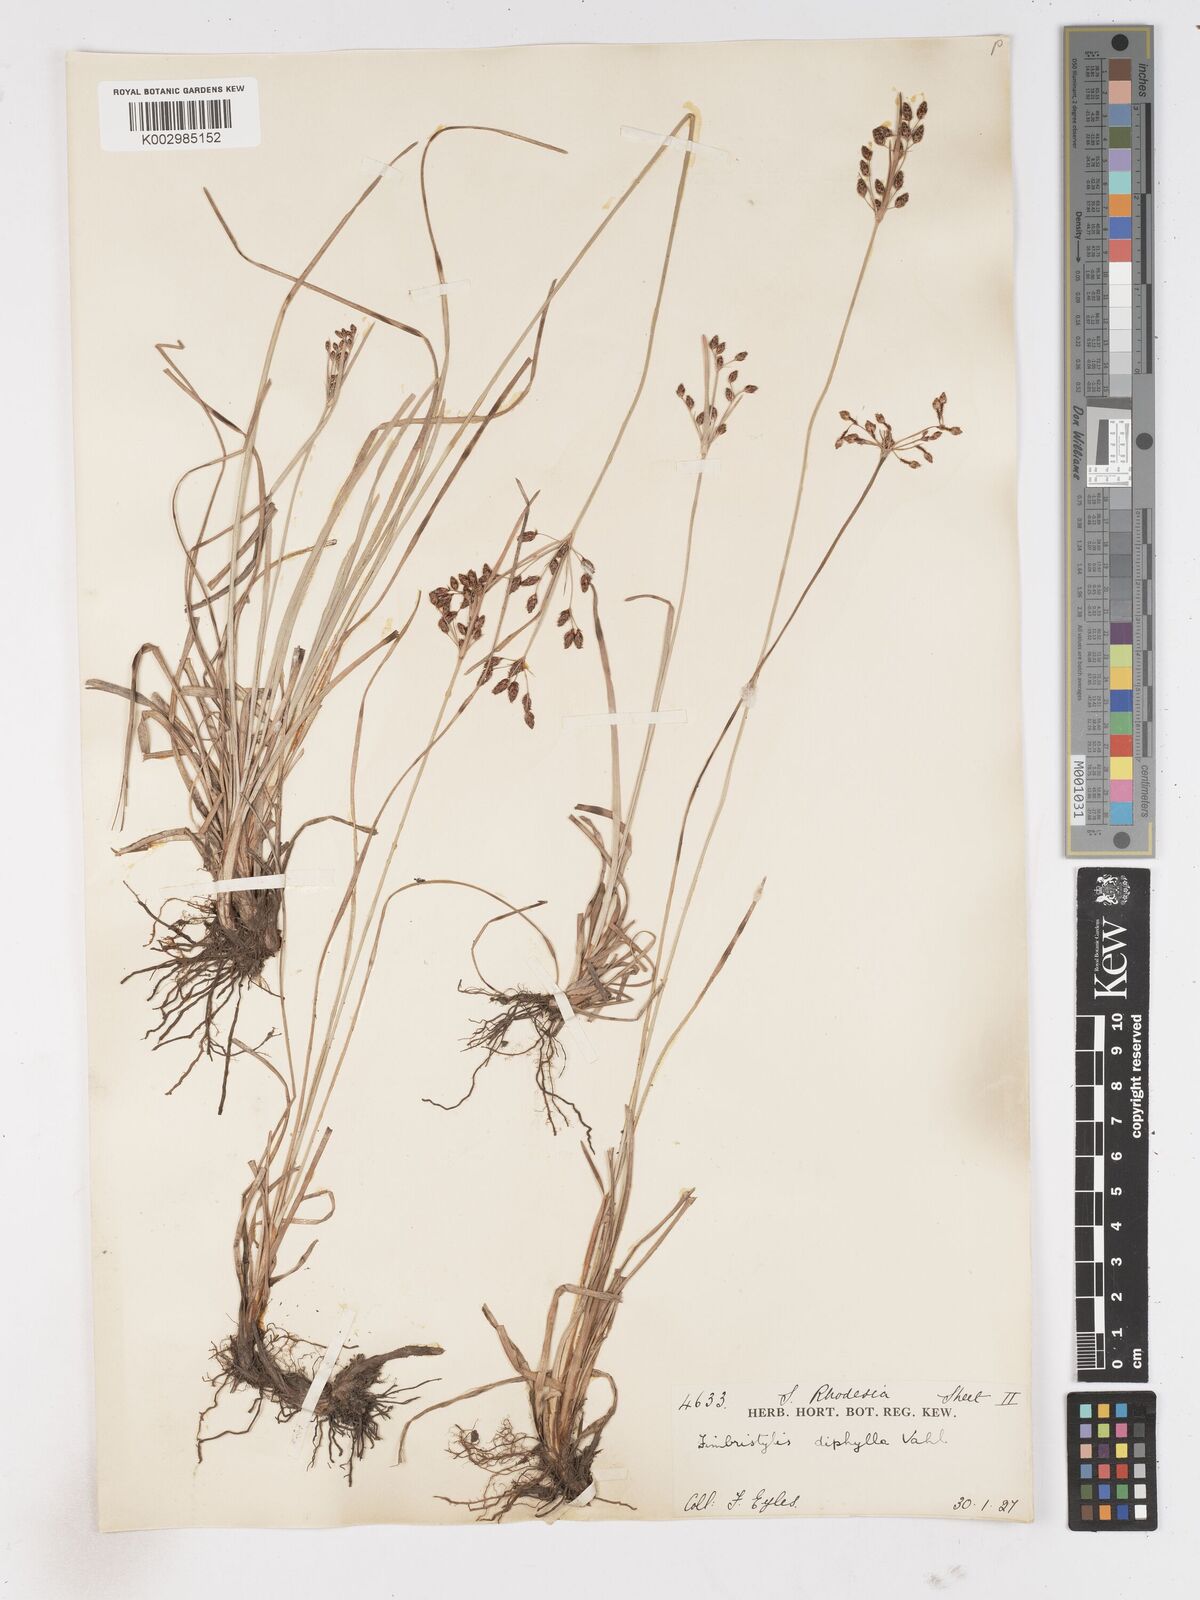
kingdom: Plantae
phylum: Tracheophyta
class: Liliopsida
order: Poales
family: Cyperaceae
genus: Fimbristylis
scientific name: Fimbristylis dichotoma
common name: Forked fimbry
